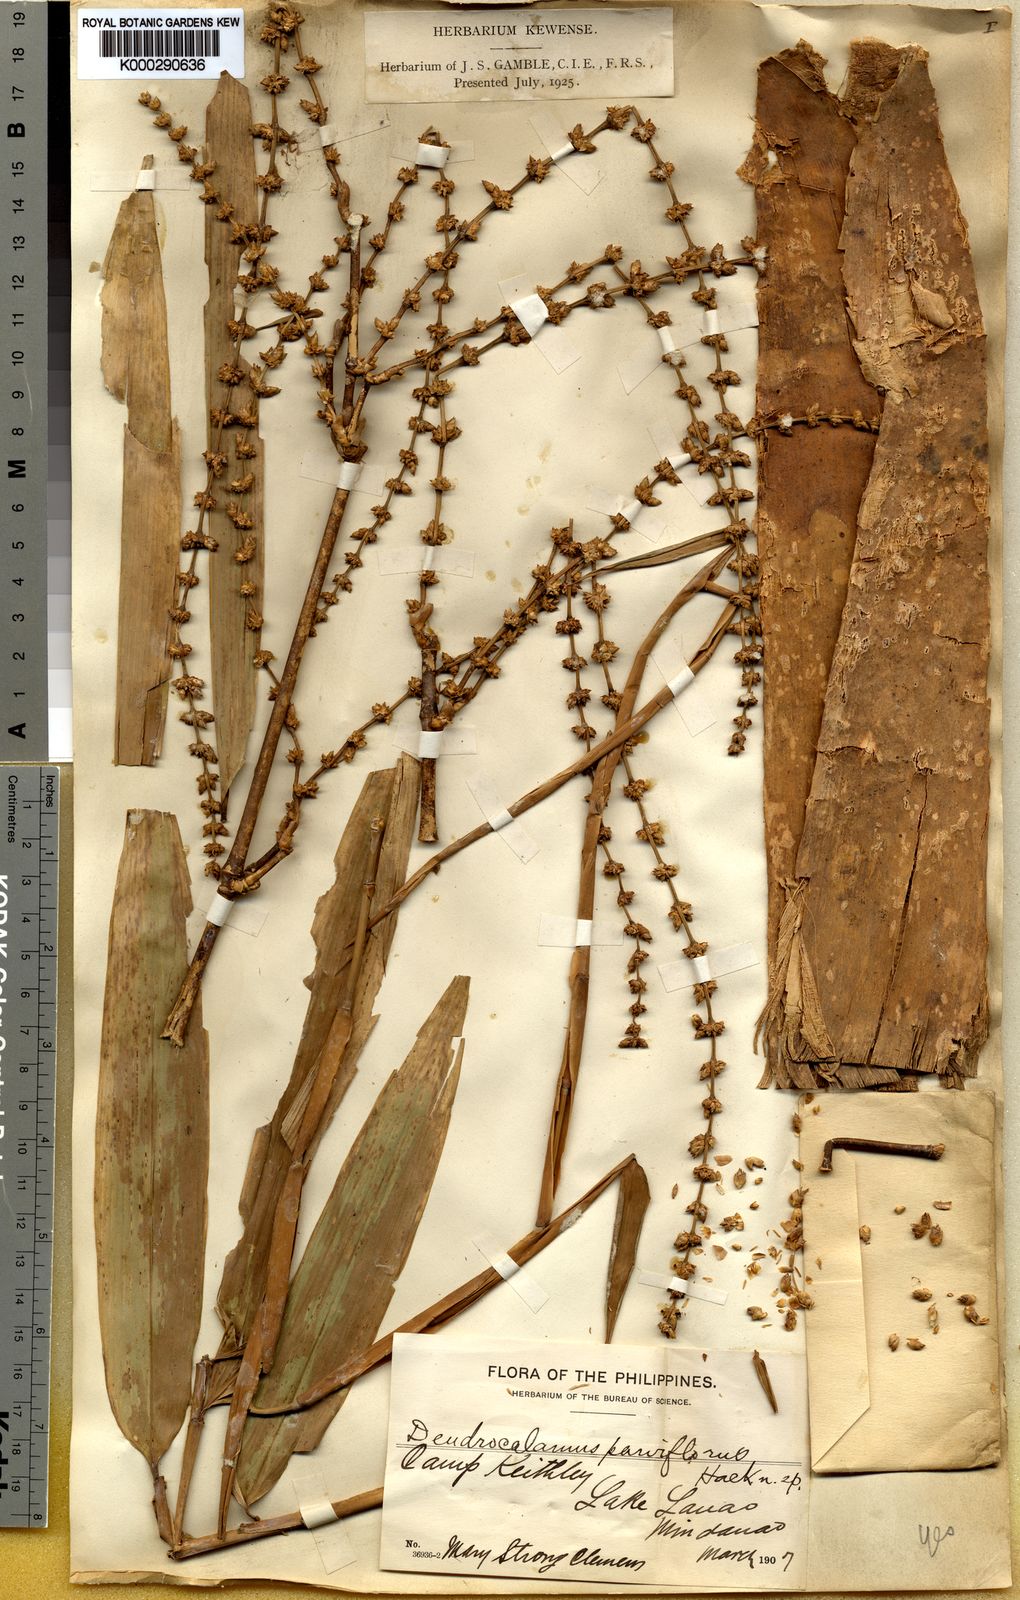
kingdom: Plantae
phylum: Tracheophyta
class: Liliopsida
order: Poales
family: Poaceae
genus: Dendrocalamus
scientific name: Dendrocalamus merrillianus
